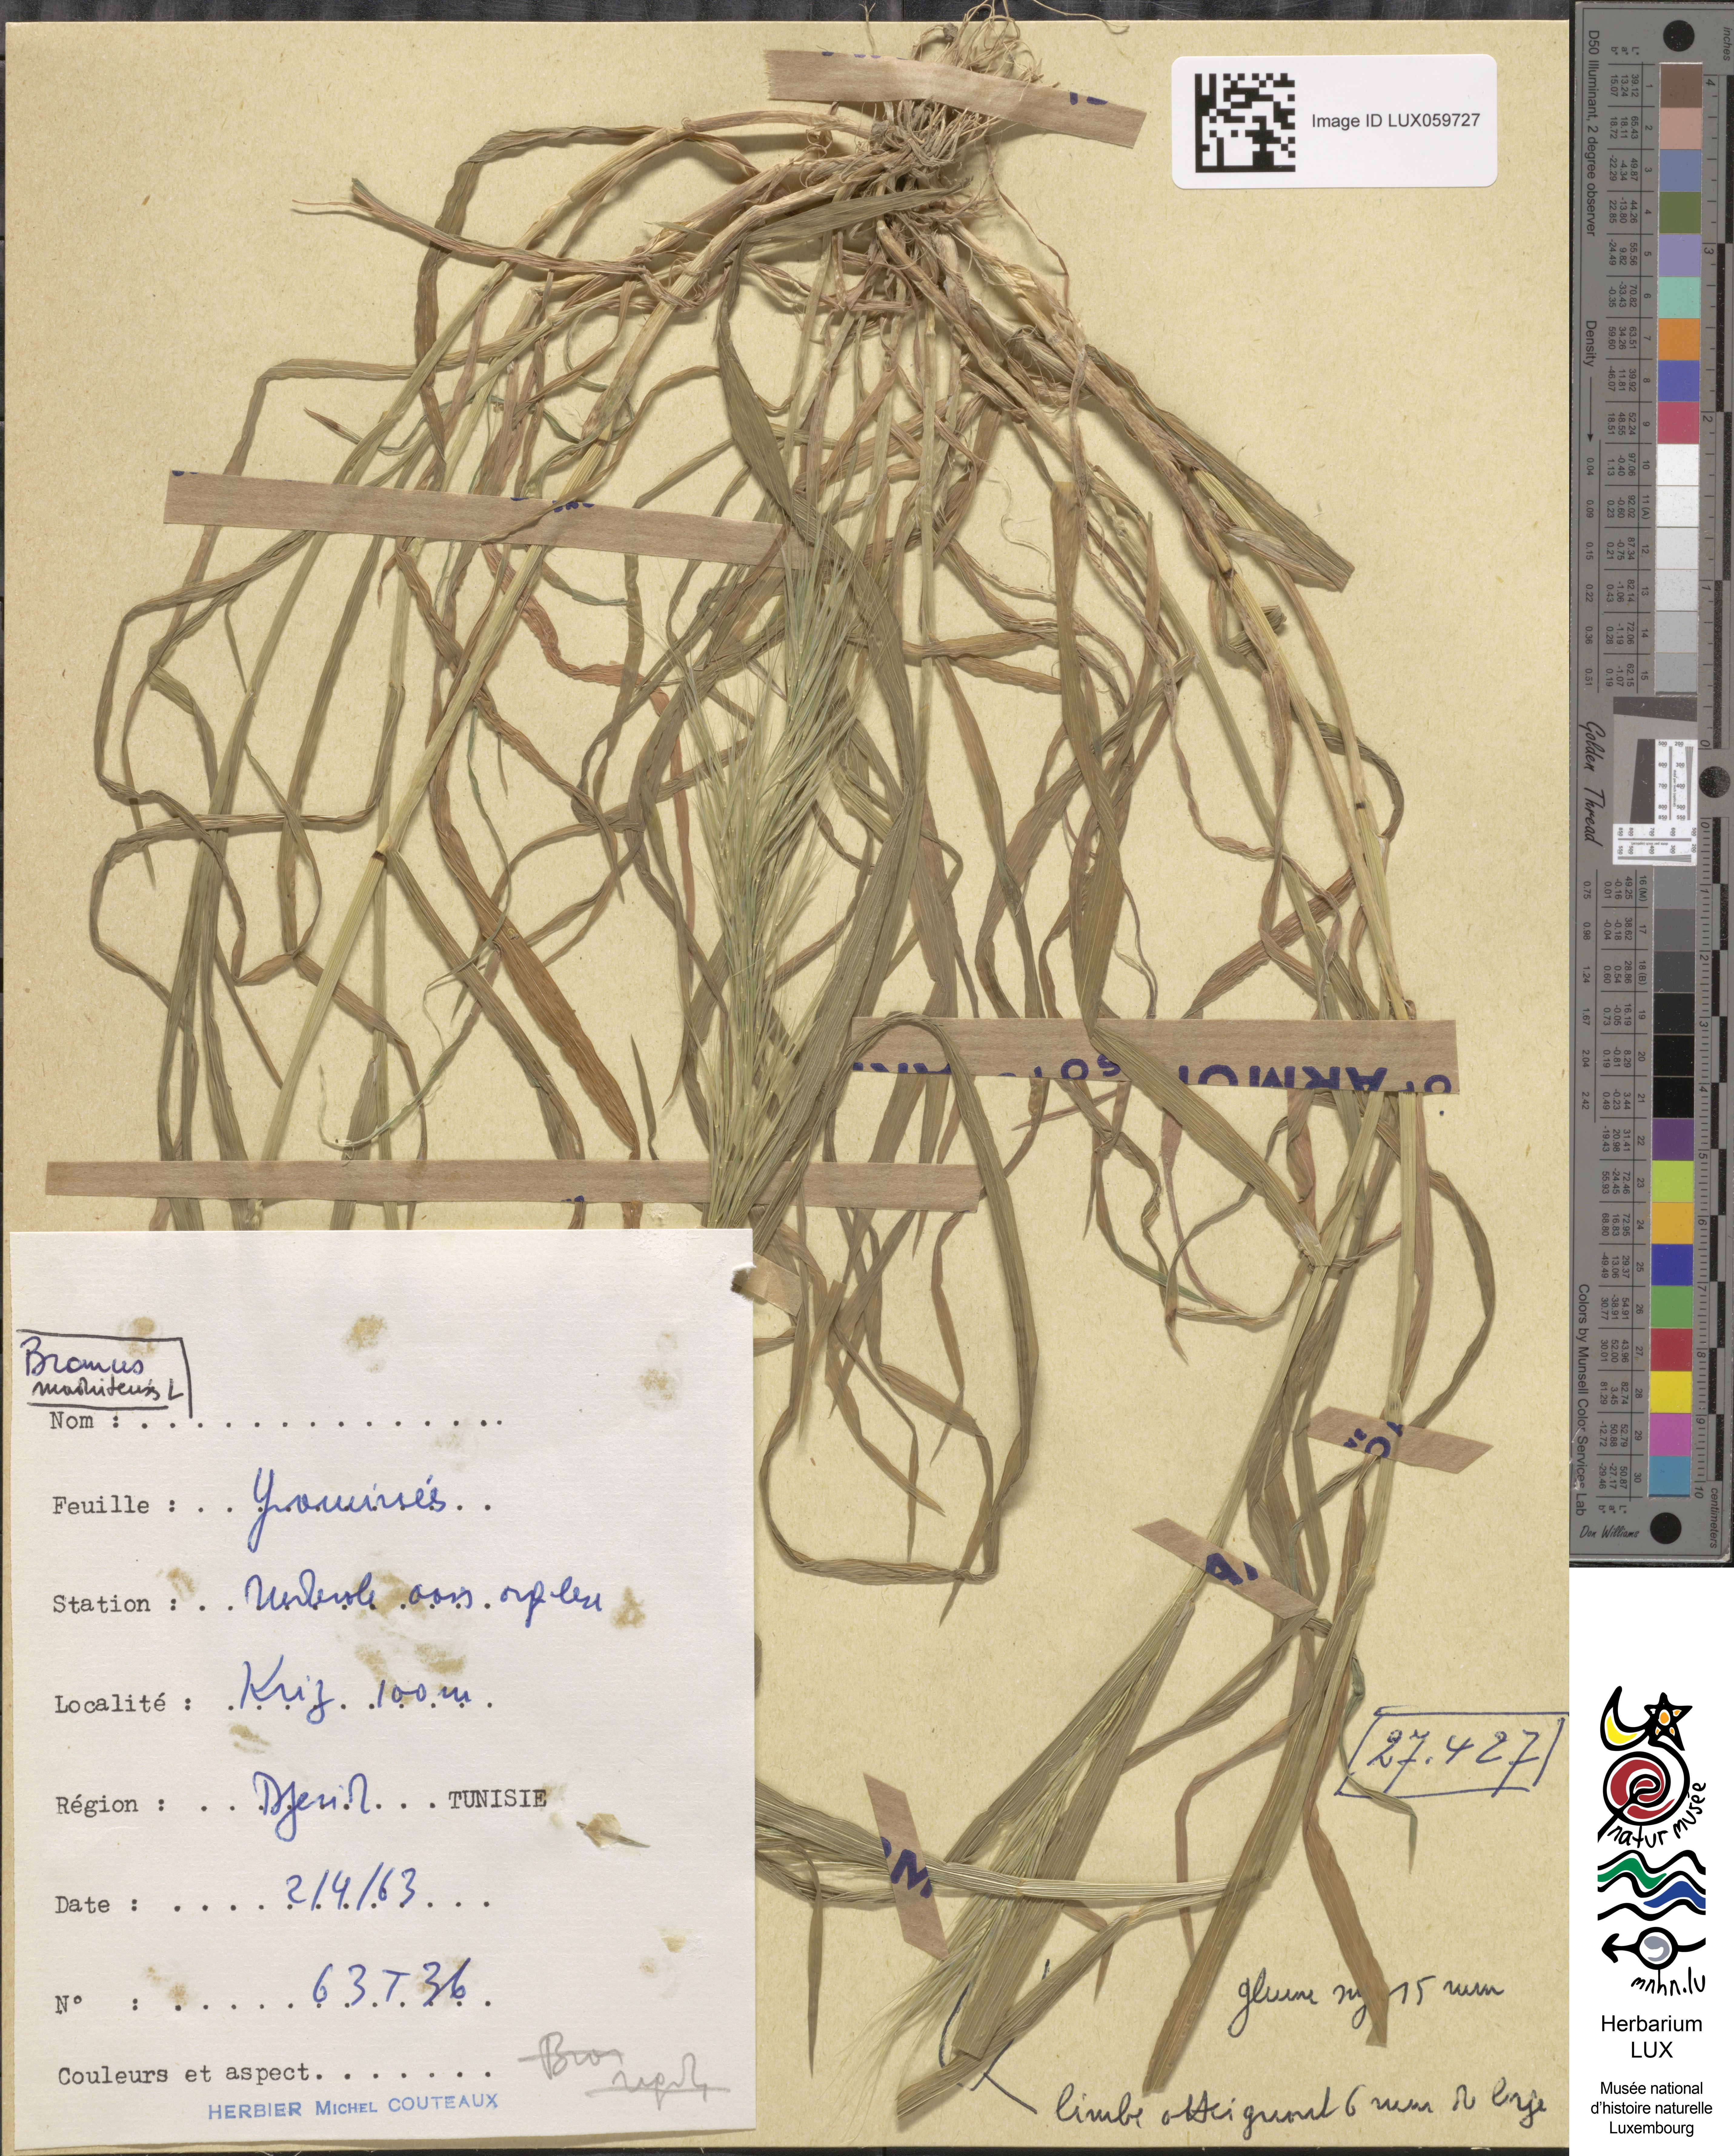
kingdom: Plantae
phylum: Tracheophyta
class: Liliopsida
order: Poales
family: Poaceae
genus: Bromus
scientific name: Bromus madritensis
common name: Compact brome
